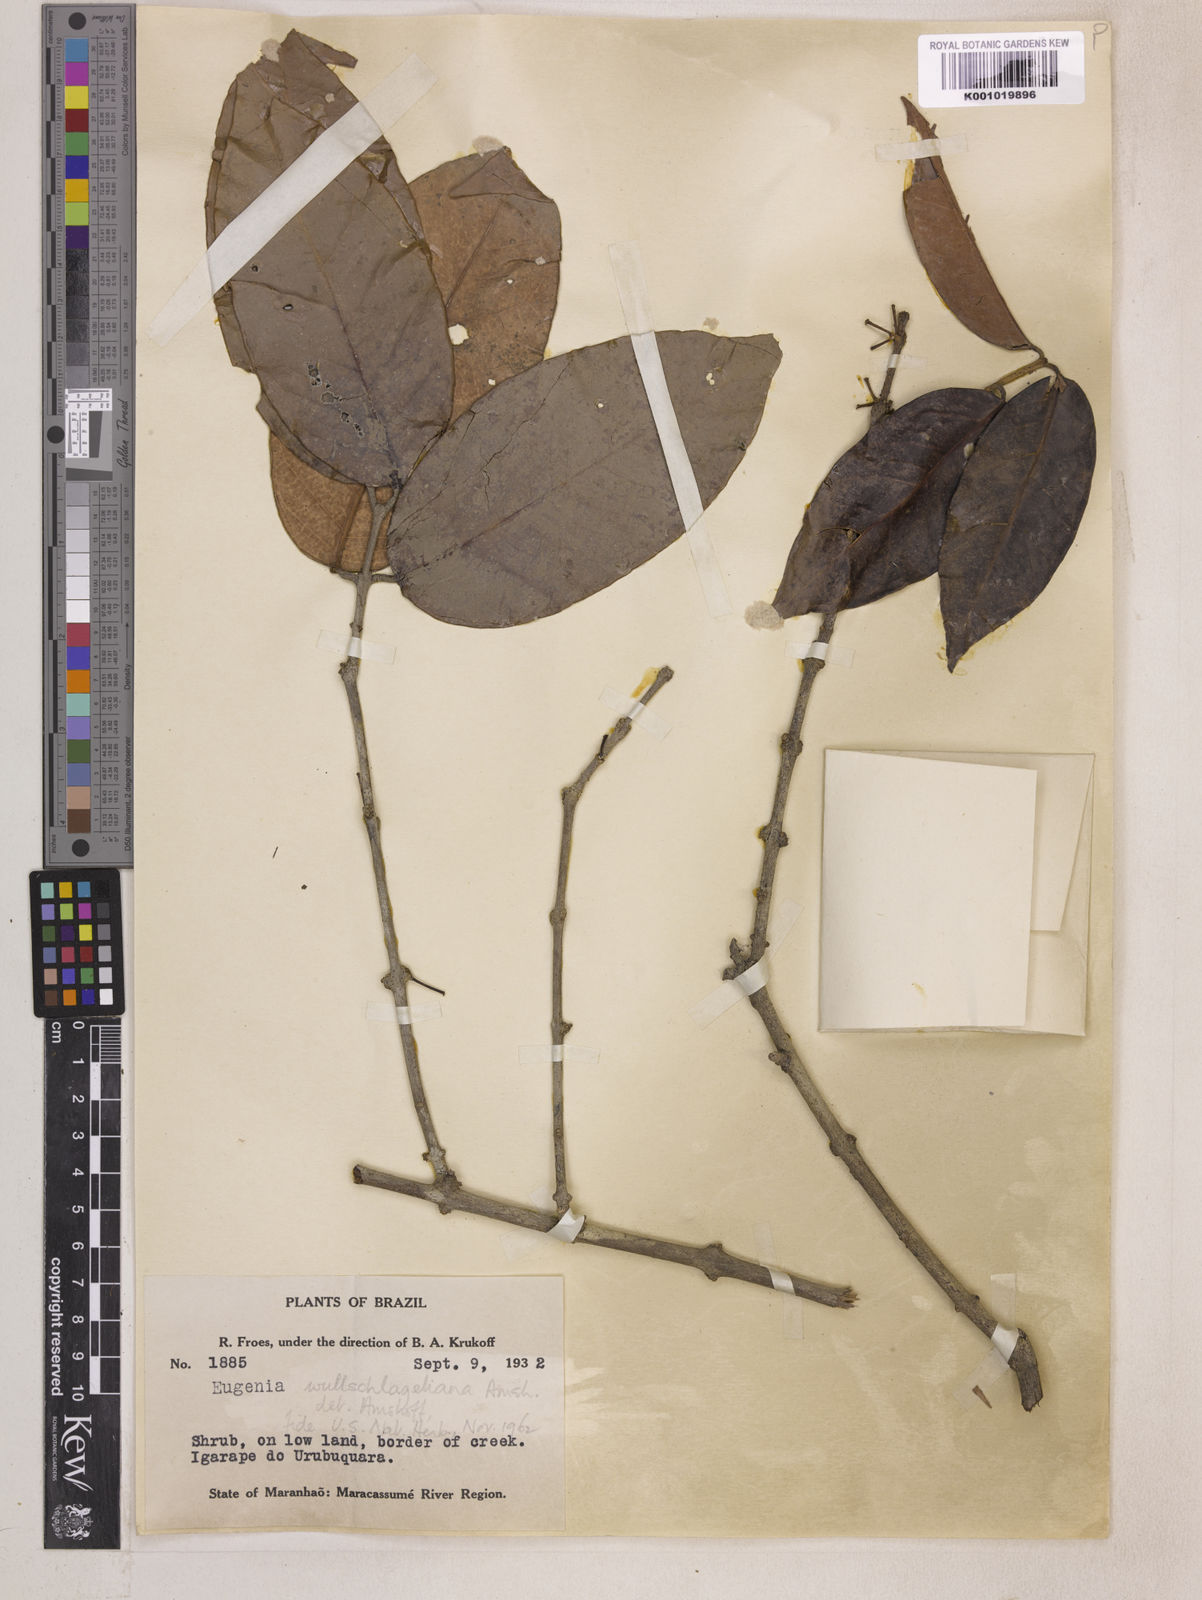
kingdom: Plantae
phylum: Tracheophyta
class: Magnoliopsida
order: Myrtales
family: Myrtaceae
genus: Eugenia
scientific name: Eugenia wullschlaegeliana
